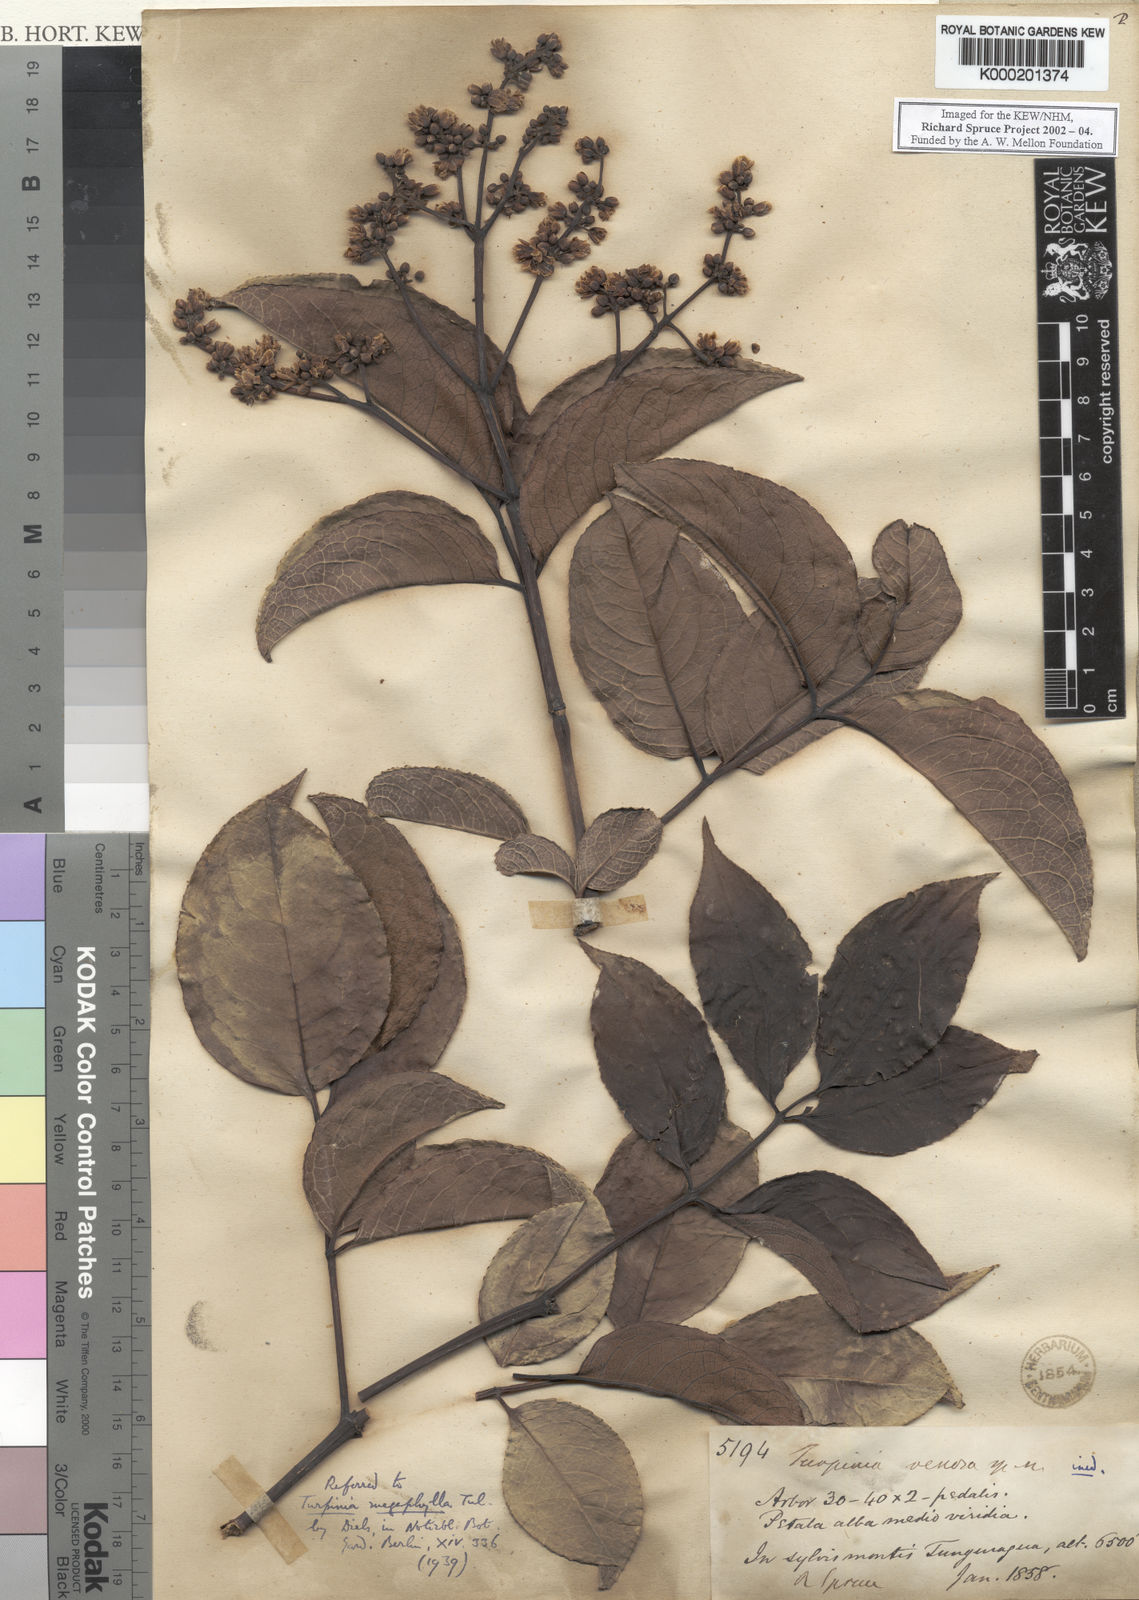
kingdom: Plantae
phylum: Tracheophyta
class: Magnoliopsida
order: Crossosomatales
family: Staphyleaceae
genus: Turpinia
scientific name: Turpinia
